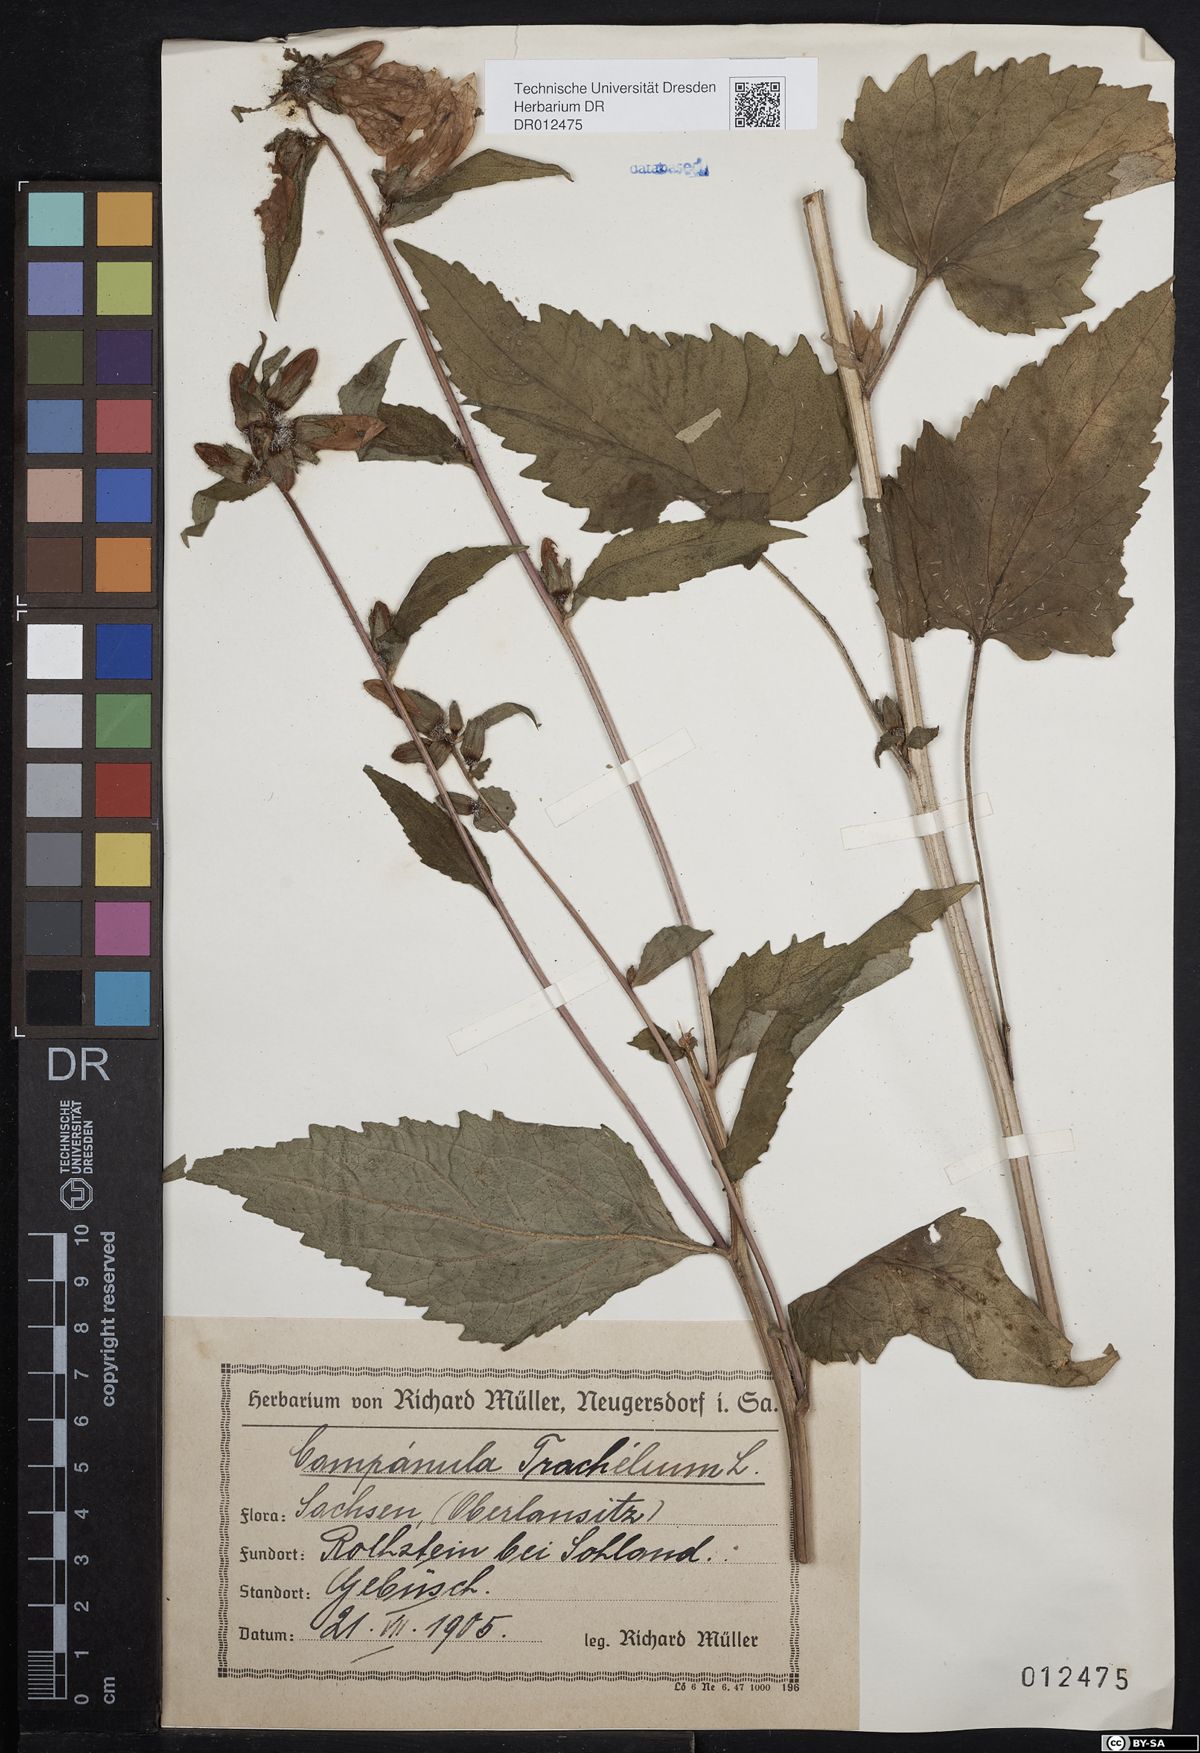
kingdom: Plantae
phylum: Tracheophyta
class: Magnoliopsida
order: Asterales
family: Campanulaceae
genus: Campanula
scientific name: Campanula trachelium
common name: Nettle-leaved bellflower
